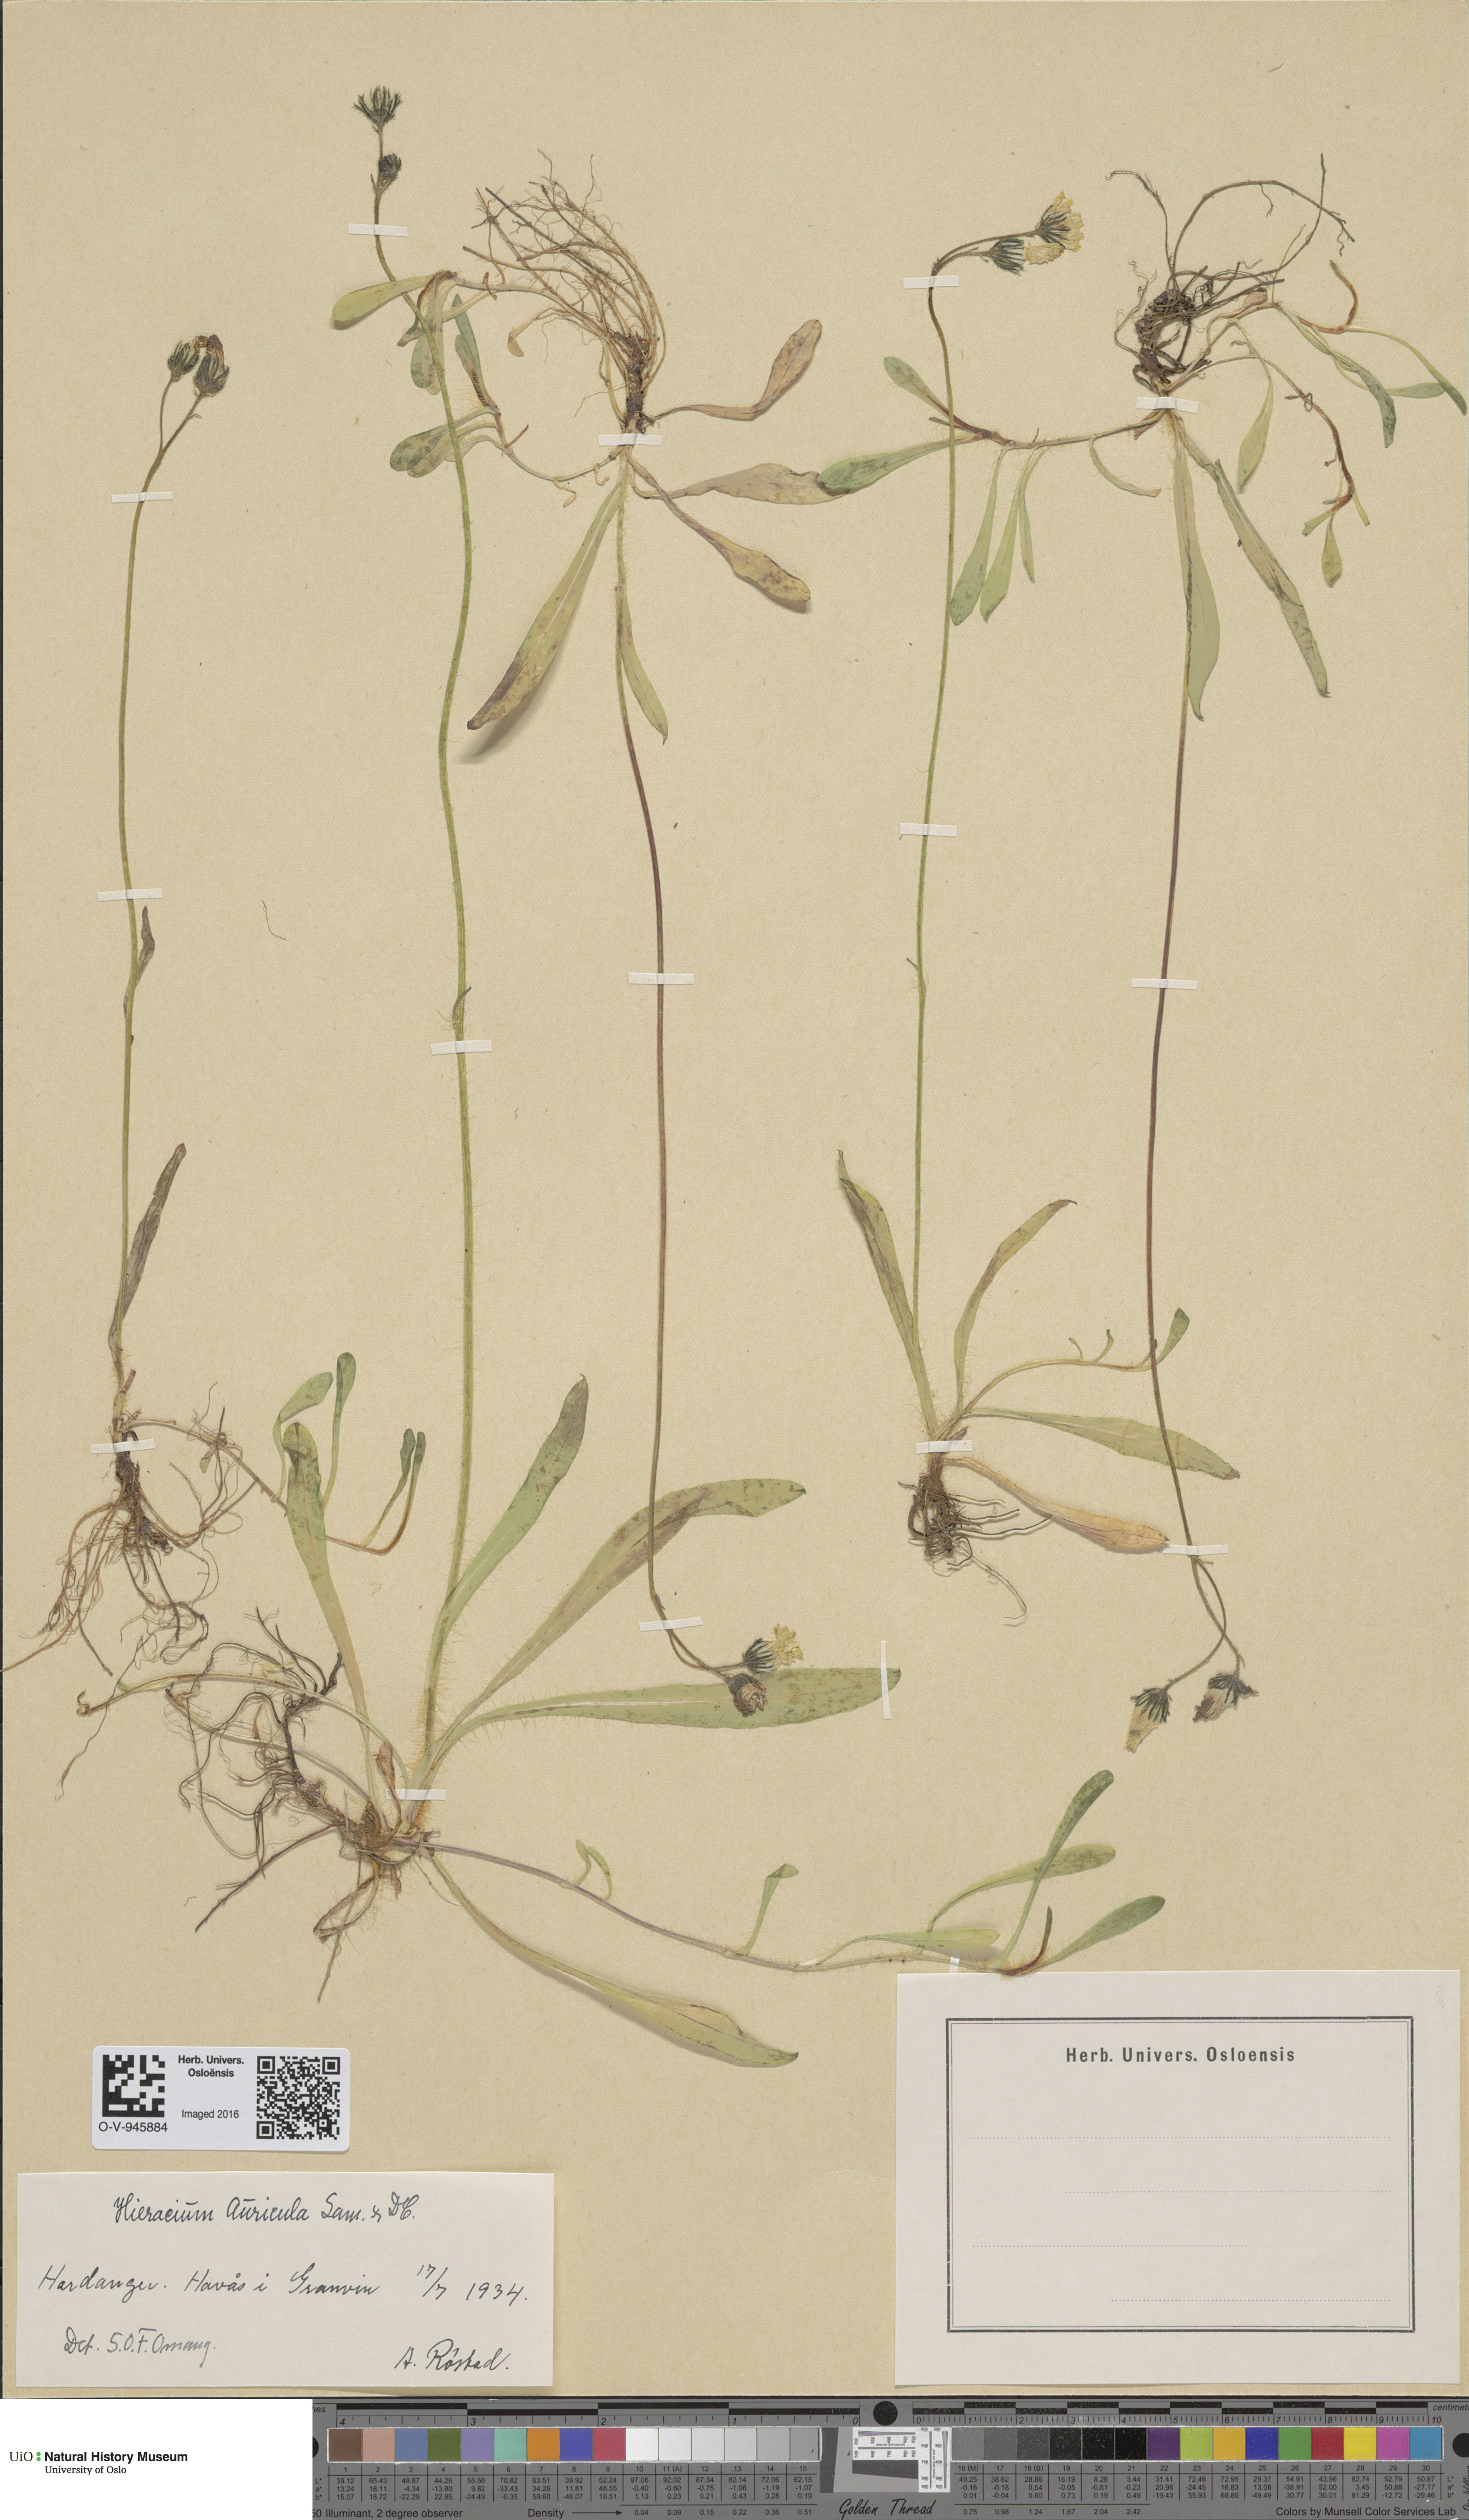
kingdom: Plantae
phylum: Tracheophyta
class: Magnoliopsida
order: Asterales
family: Asteraceae
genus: Pilosella
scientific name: Pilosella lactucella
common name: Glaucous fox-and-cubs
